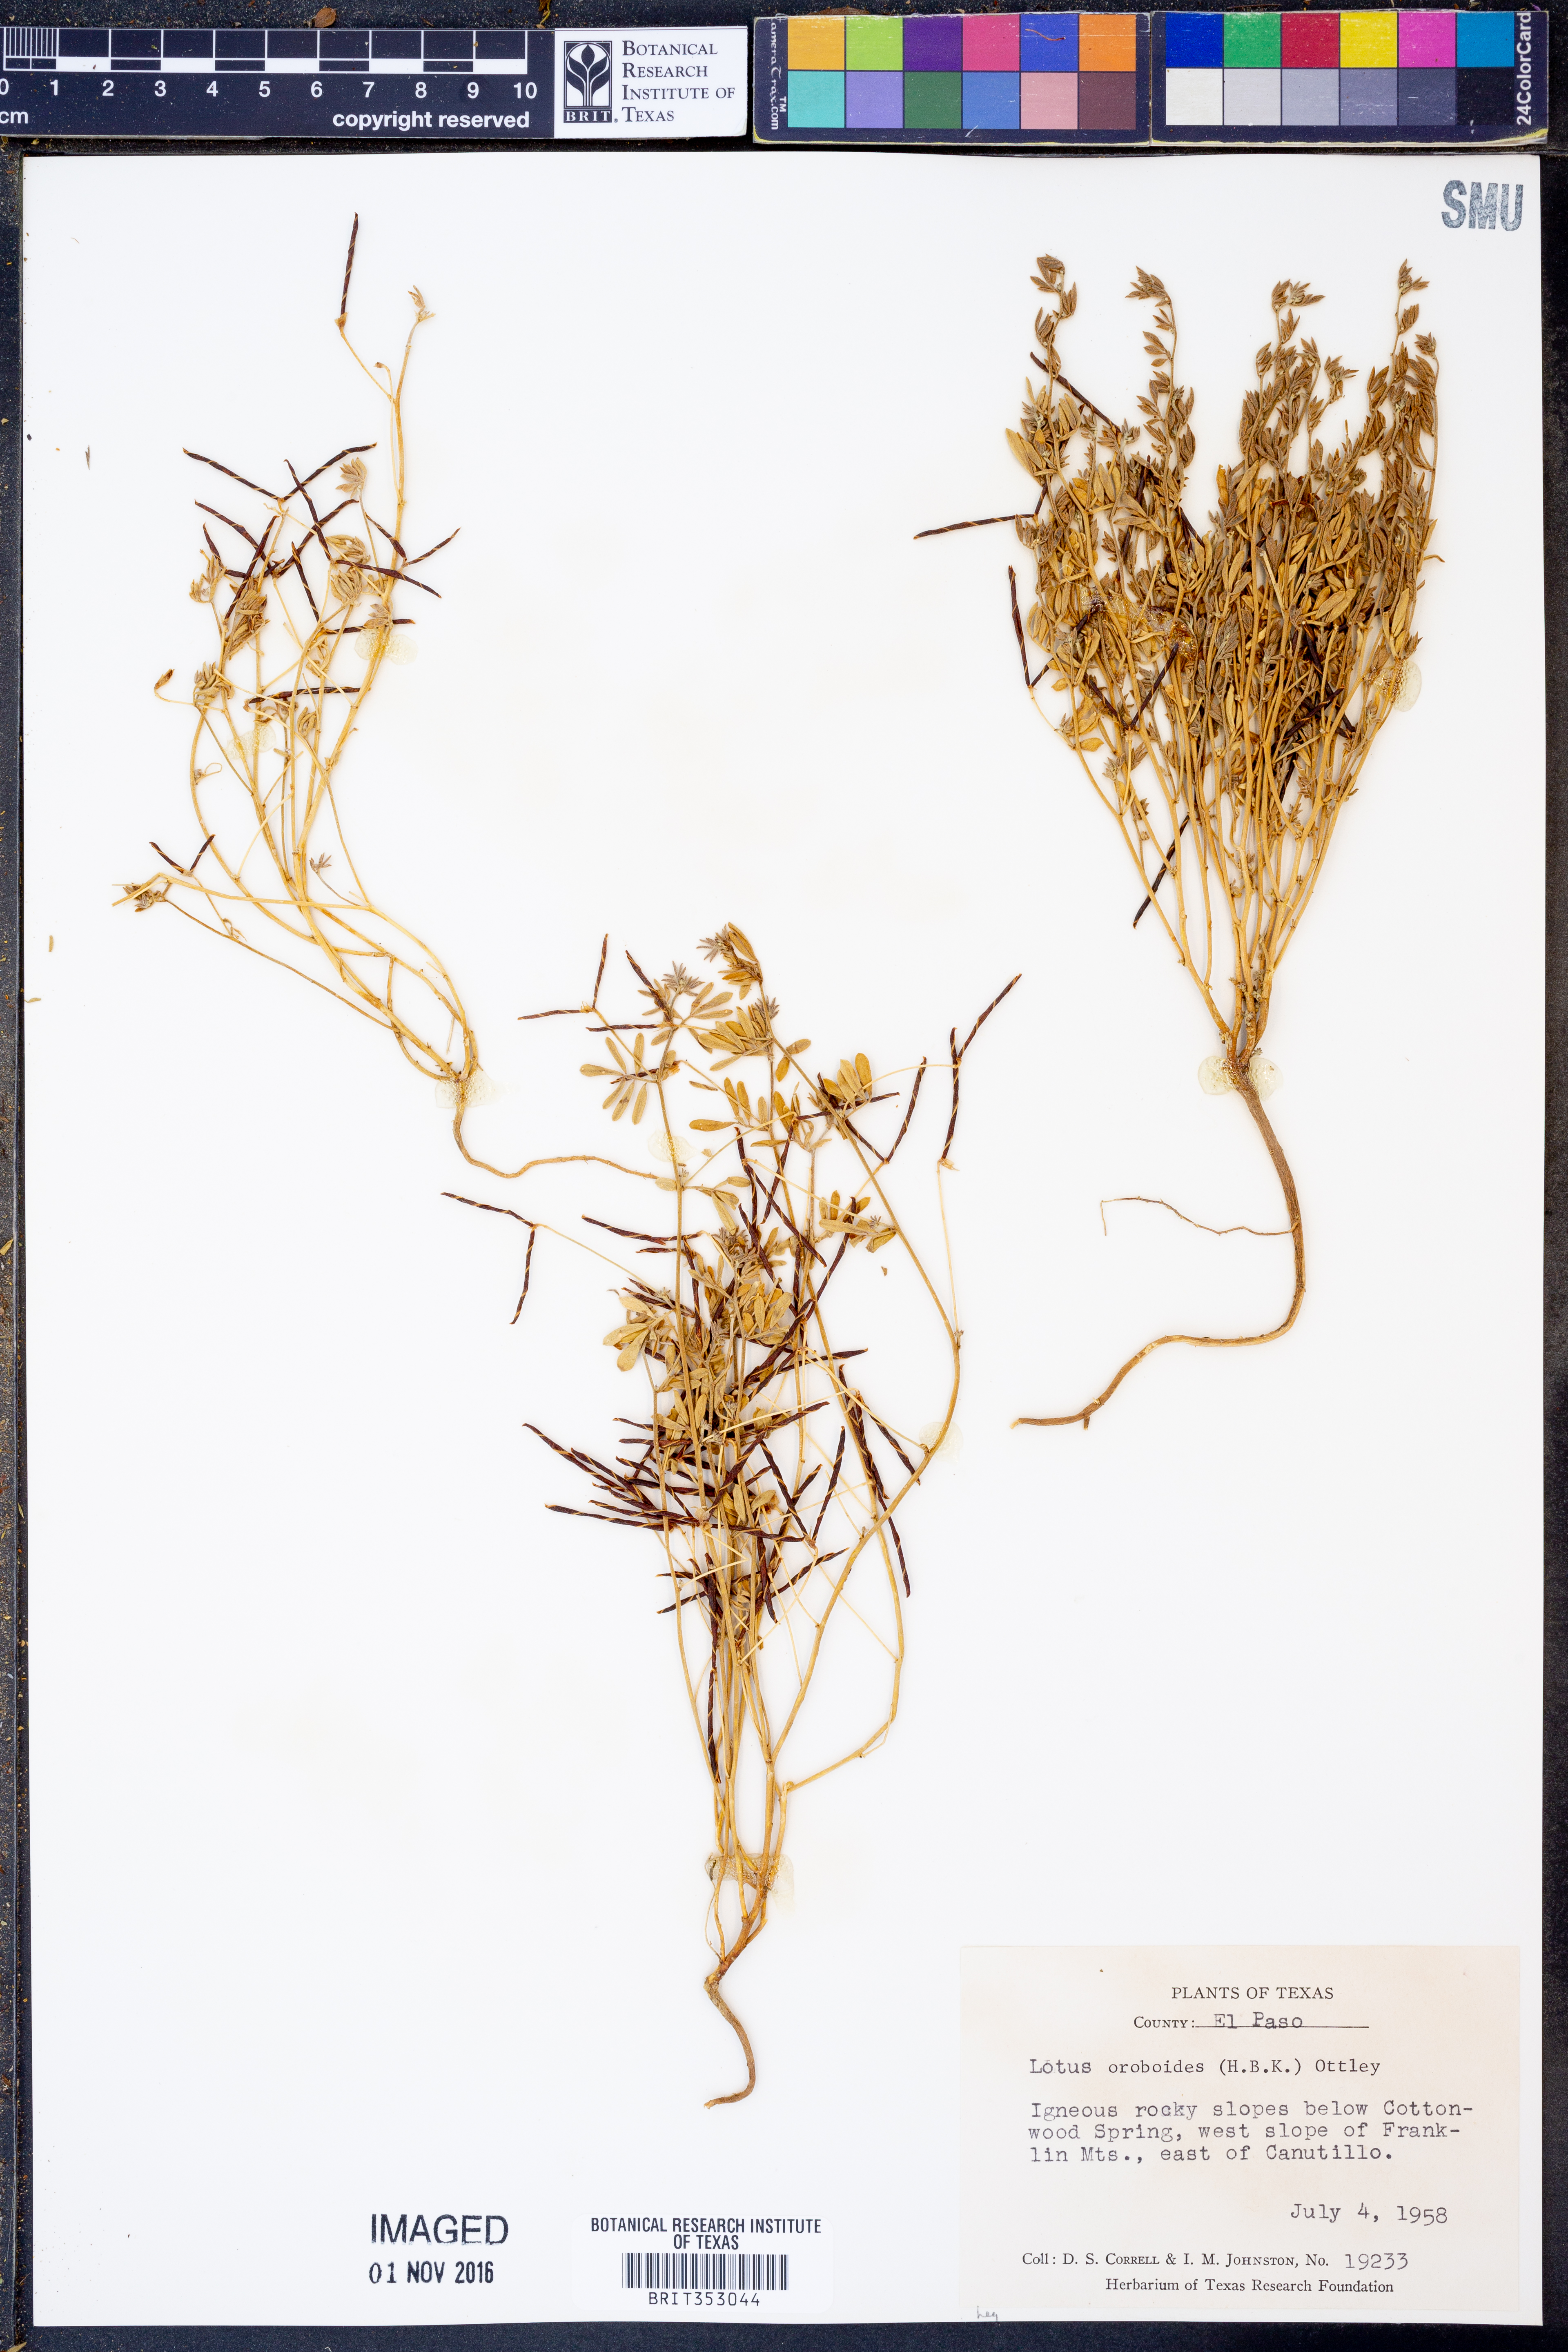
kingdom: Plantae
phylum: Tracheophyta
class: Magnoliopsida
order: Fabales
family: Fabaceae
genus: Acmispon
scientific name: Acmispon oroboides
